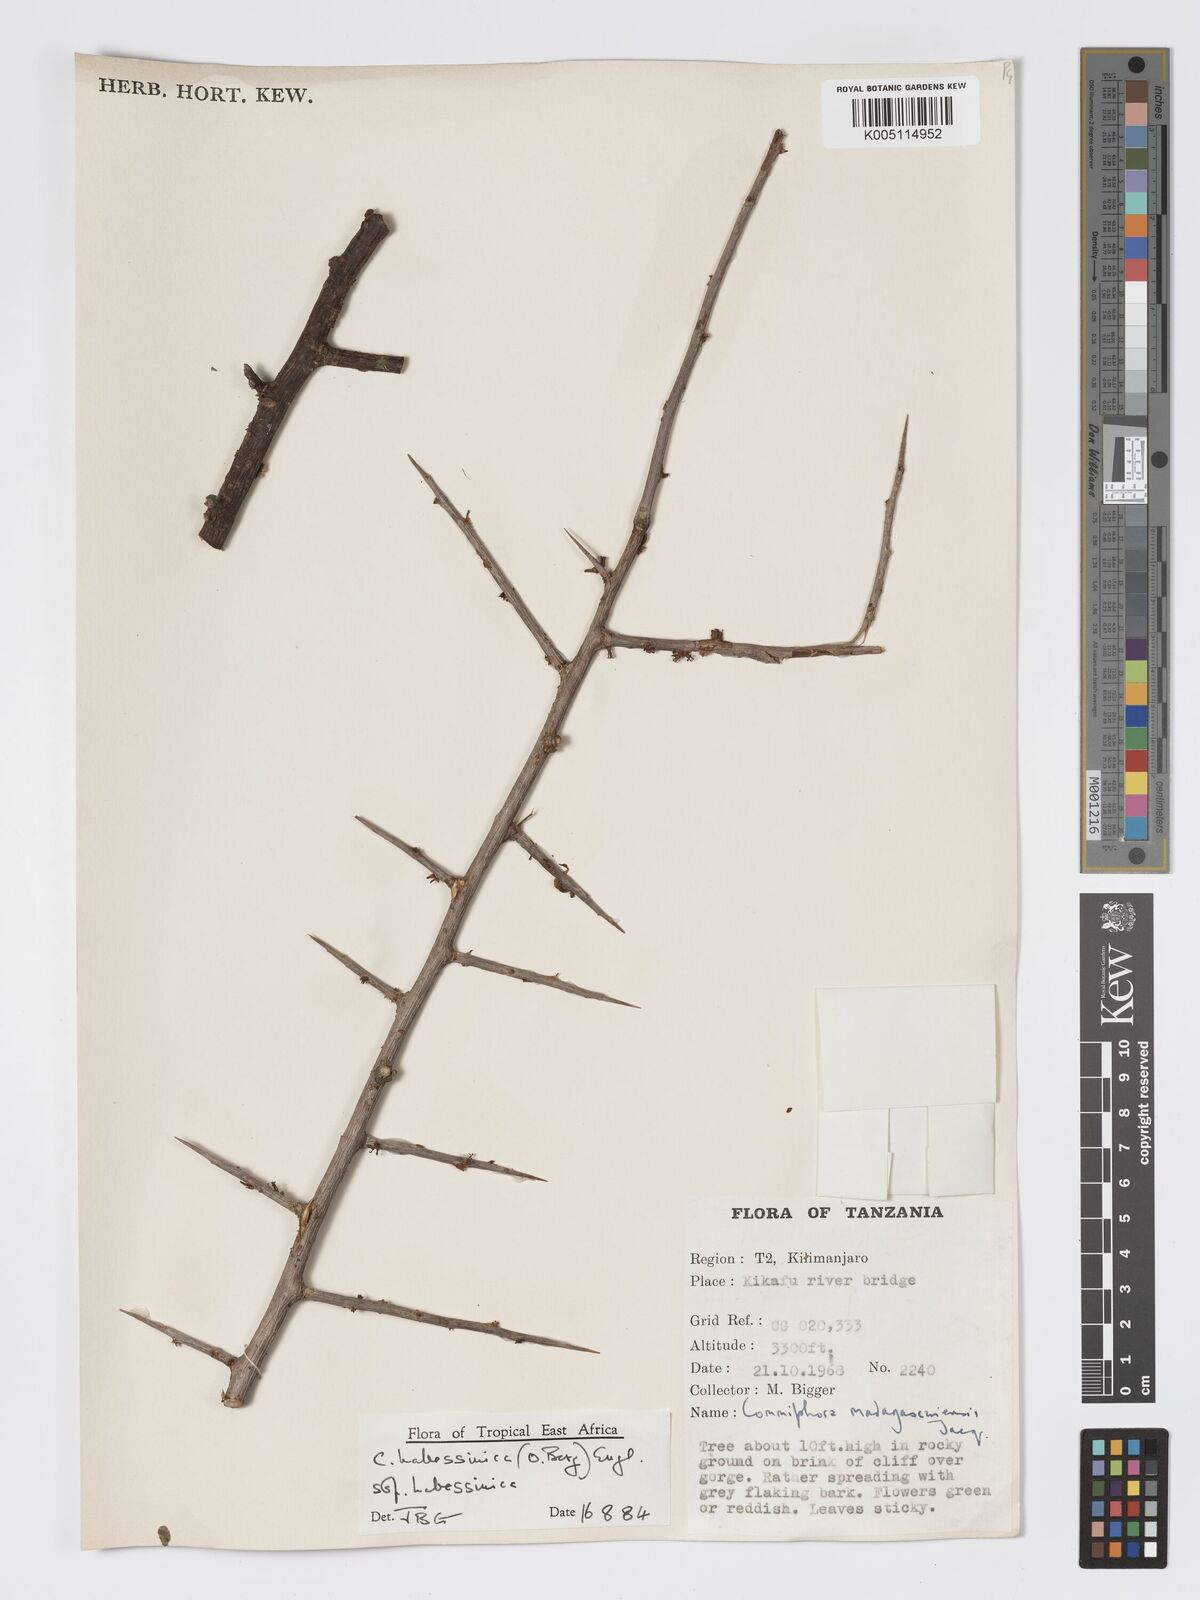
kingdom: Plantae
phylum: Tracheophyta
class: Magnoliopsida
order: Sapindales
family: Burseraceae
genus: Commiphora
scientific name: Commiphora madagascariensis
